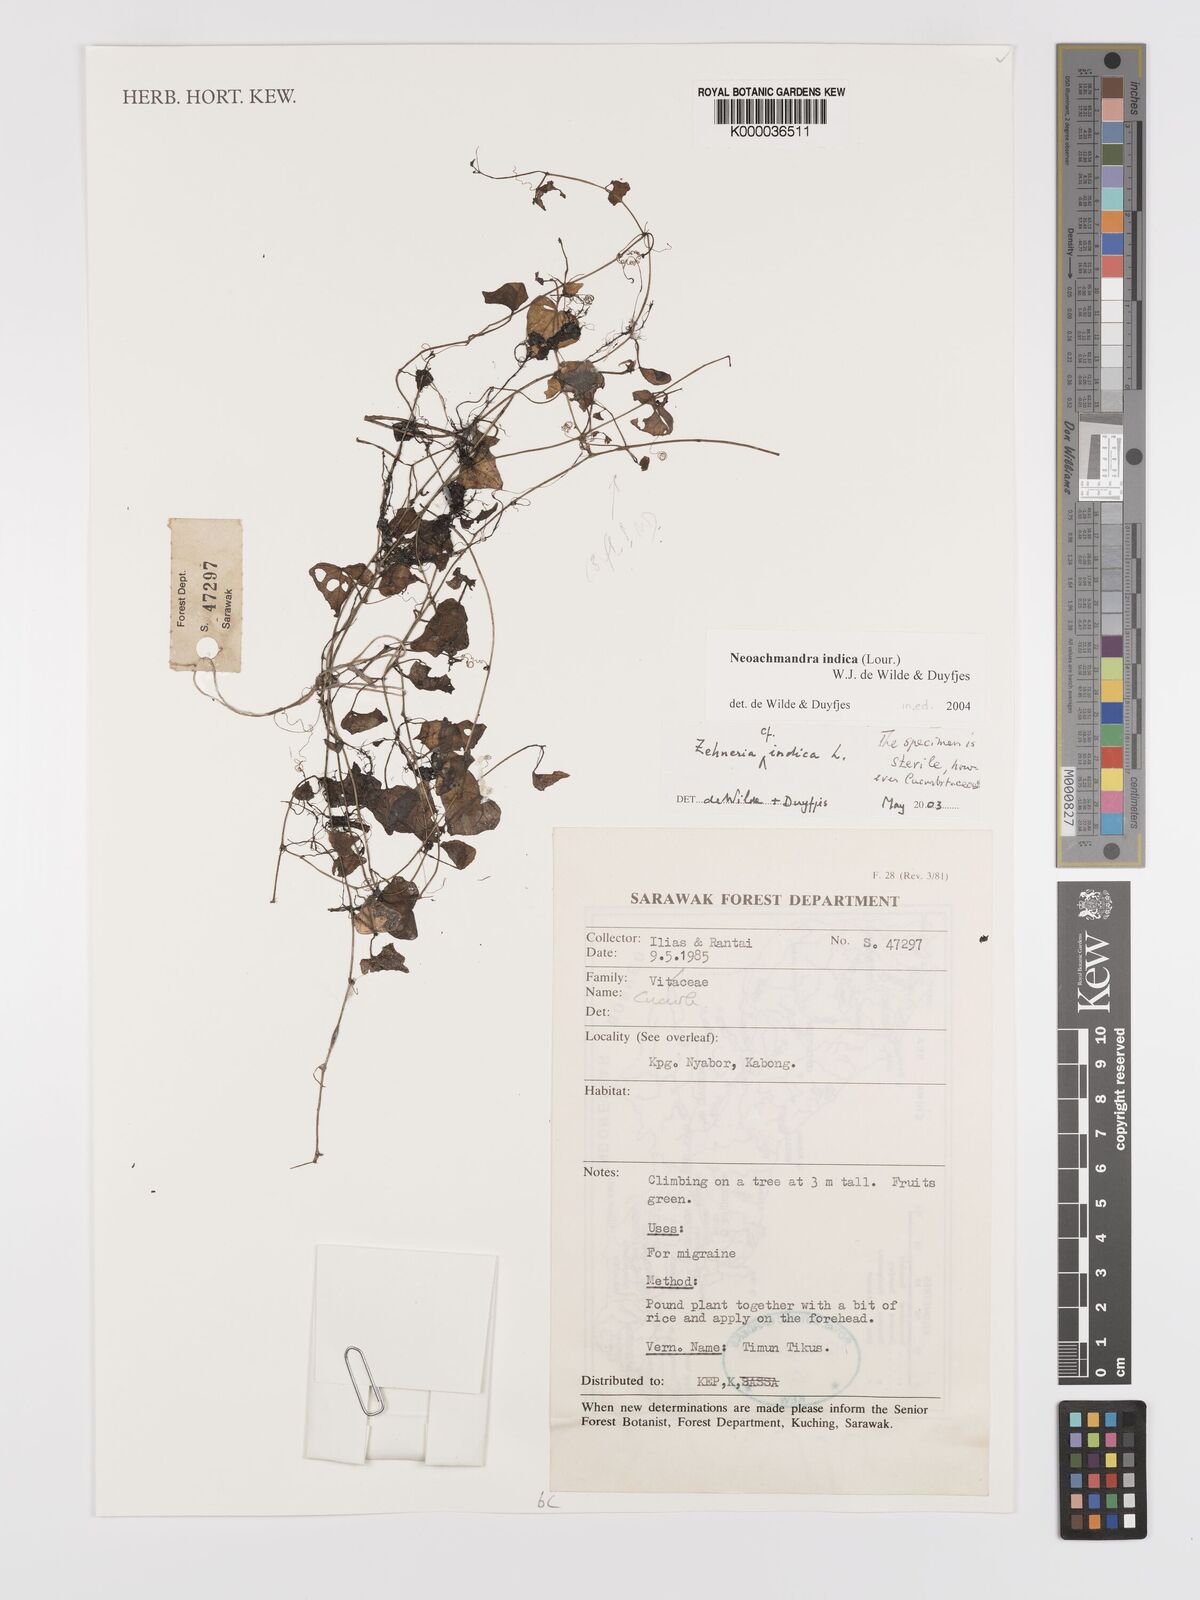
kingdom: Plantae
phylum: Tracheophyta
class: Magnoliopsida
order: Cucurbitales
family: Cucurbitaceae
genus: Zehneria
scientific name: Zehneria
